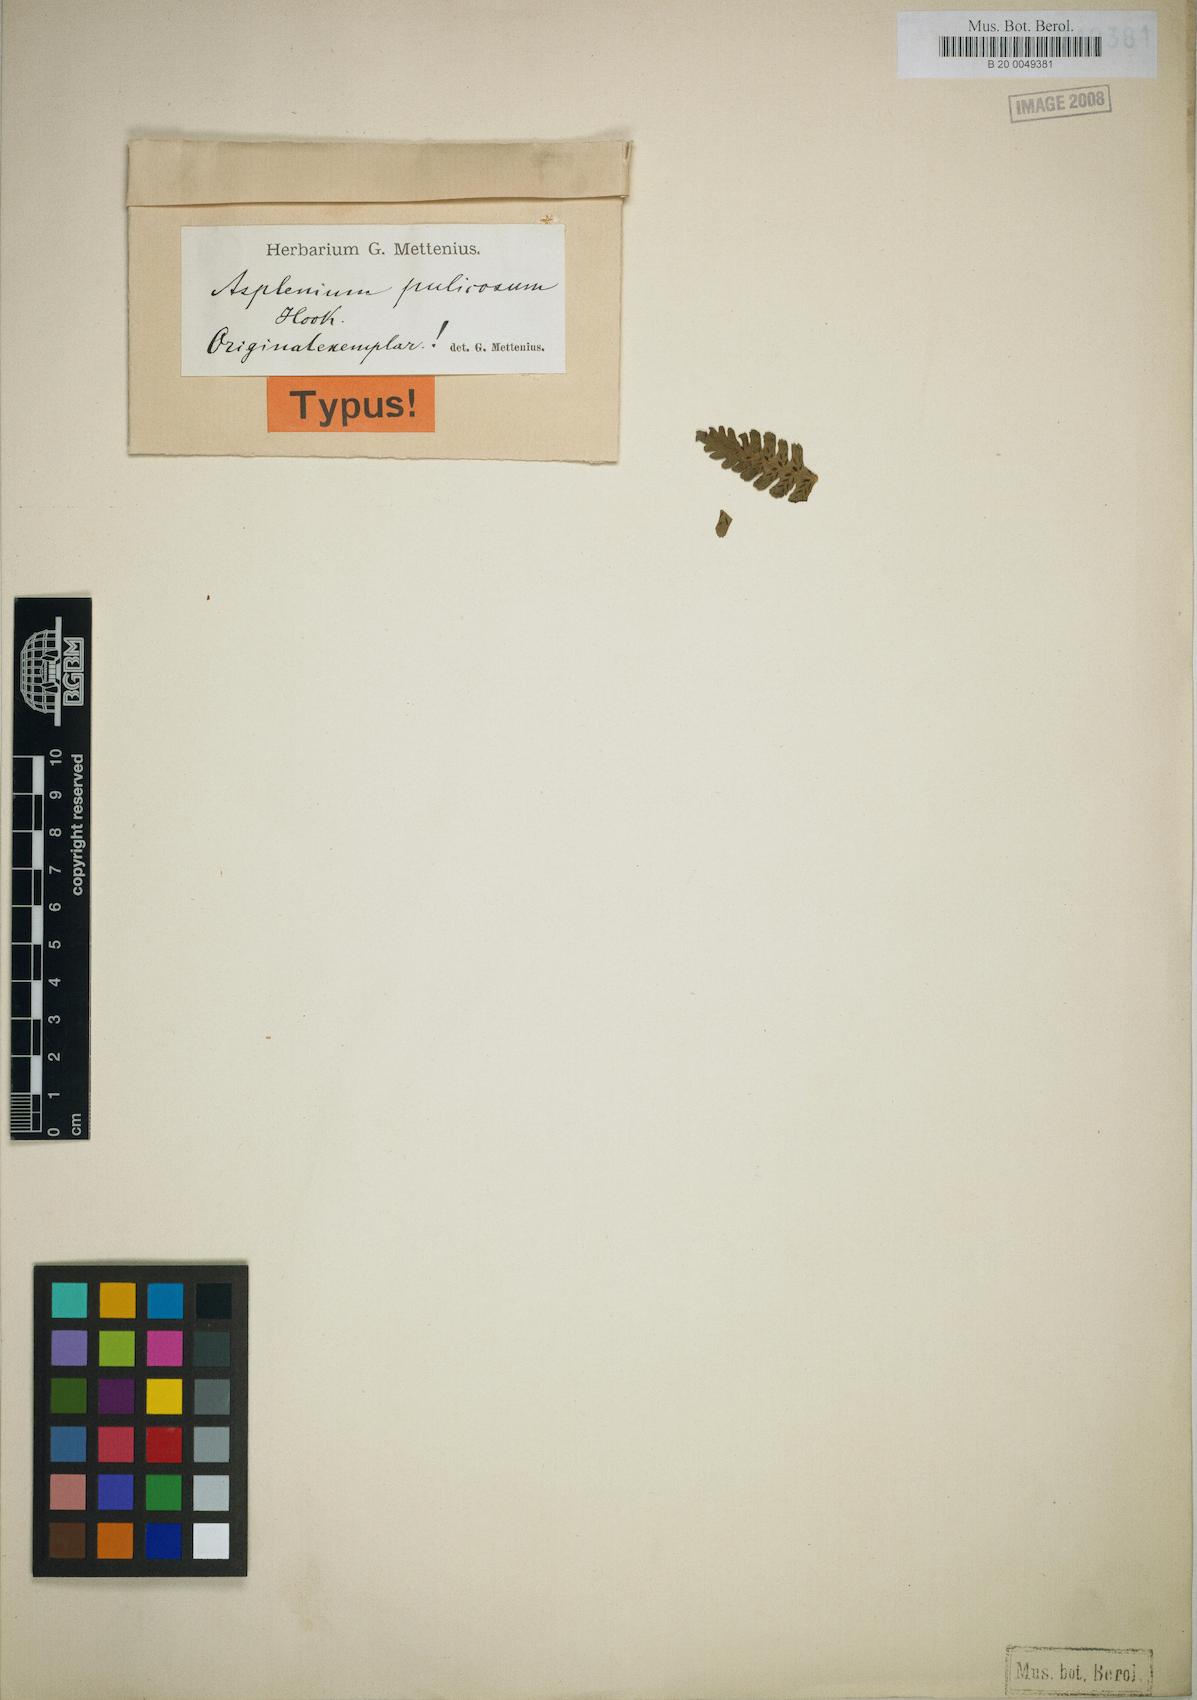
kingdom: Plantae
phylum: Tracheophyta
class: Polypodiopsida
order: Polypodiales
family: Athyriaceae
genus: Diplazium
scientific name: Diplazium pulicosum
